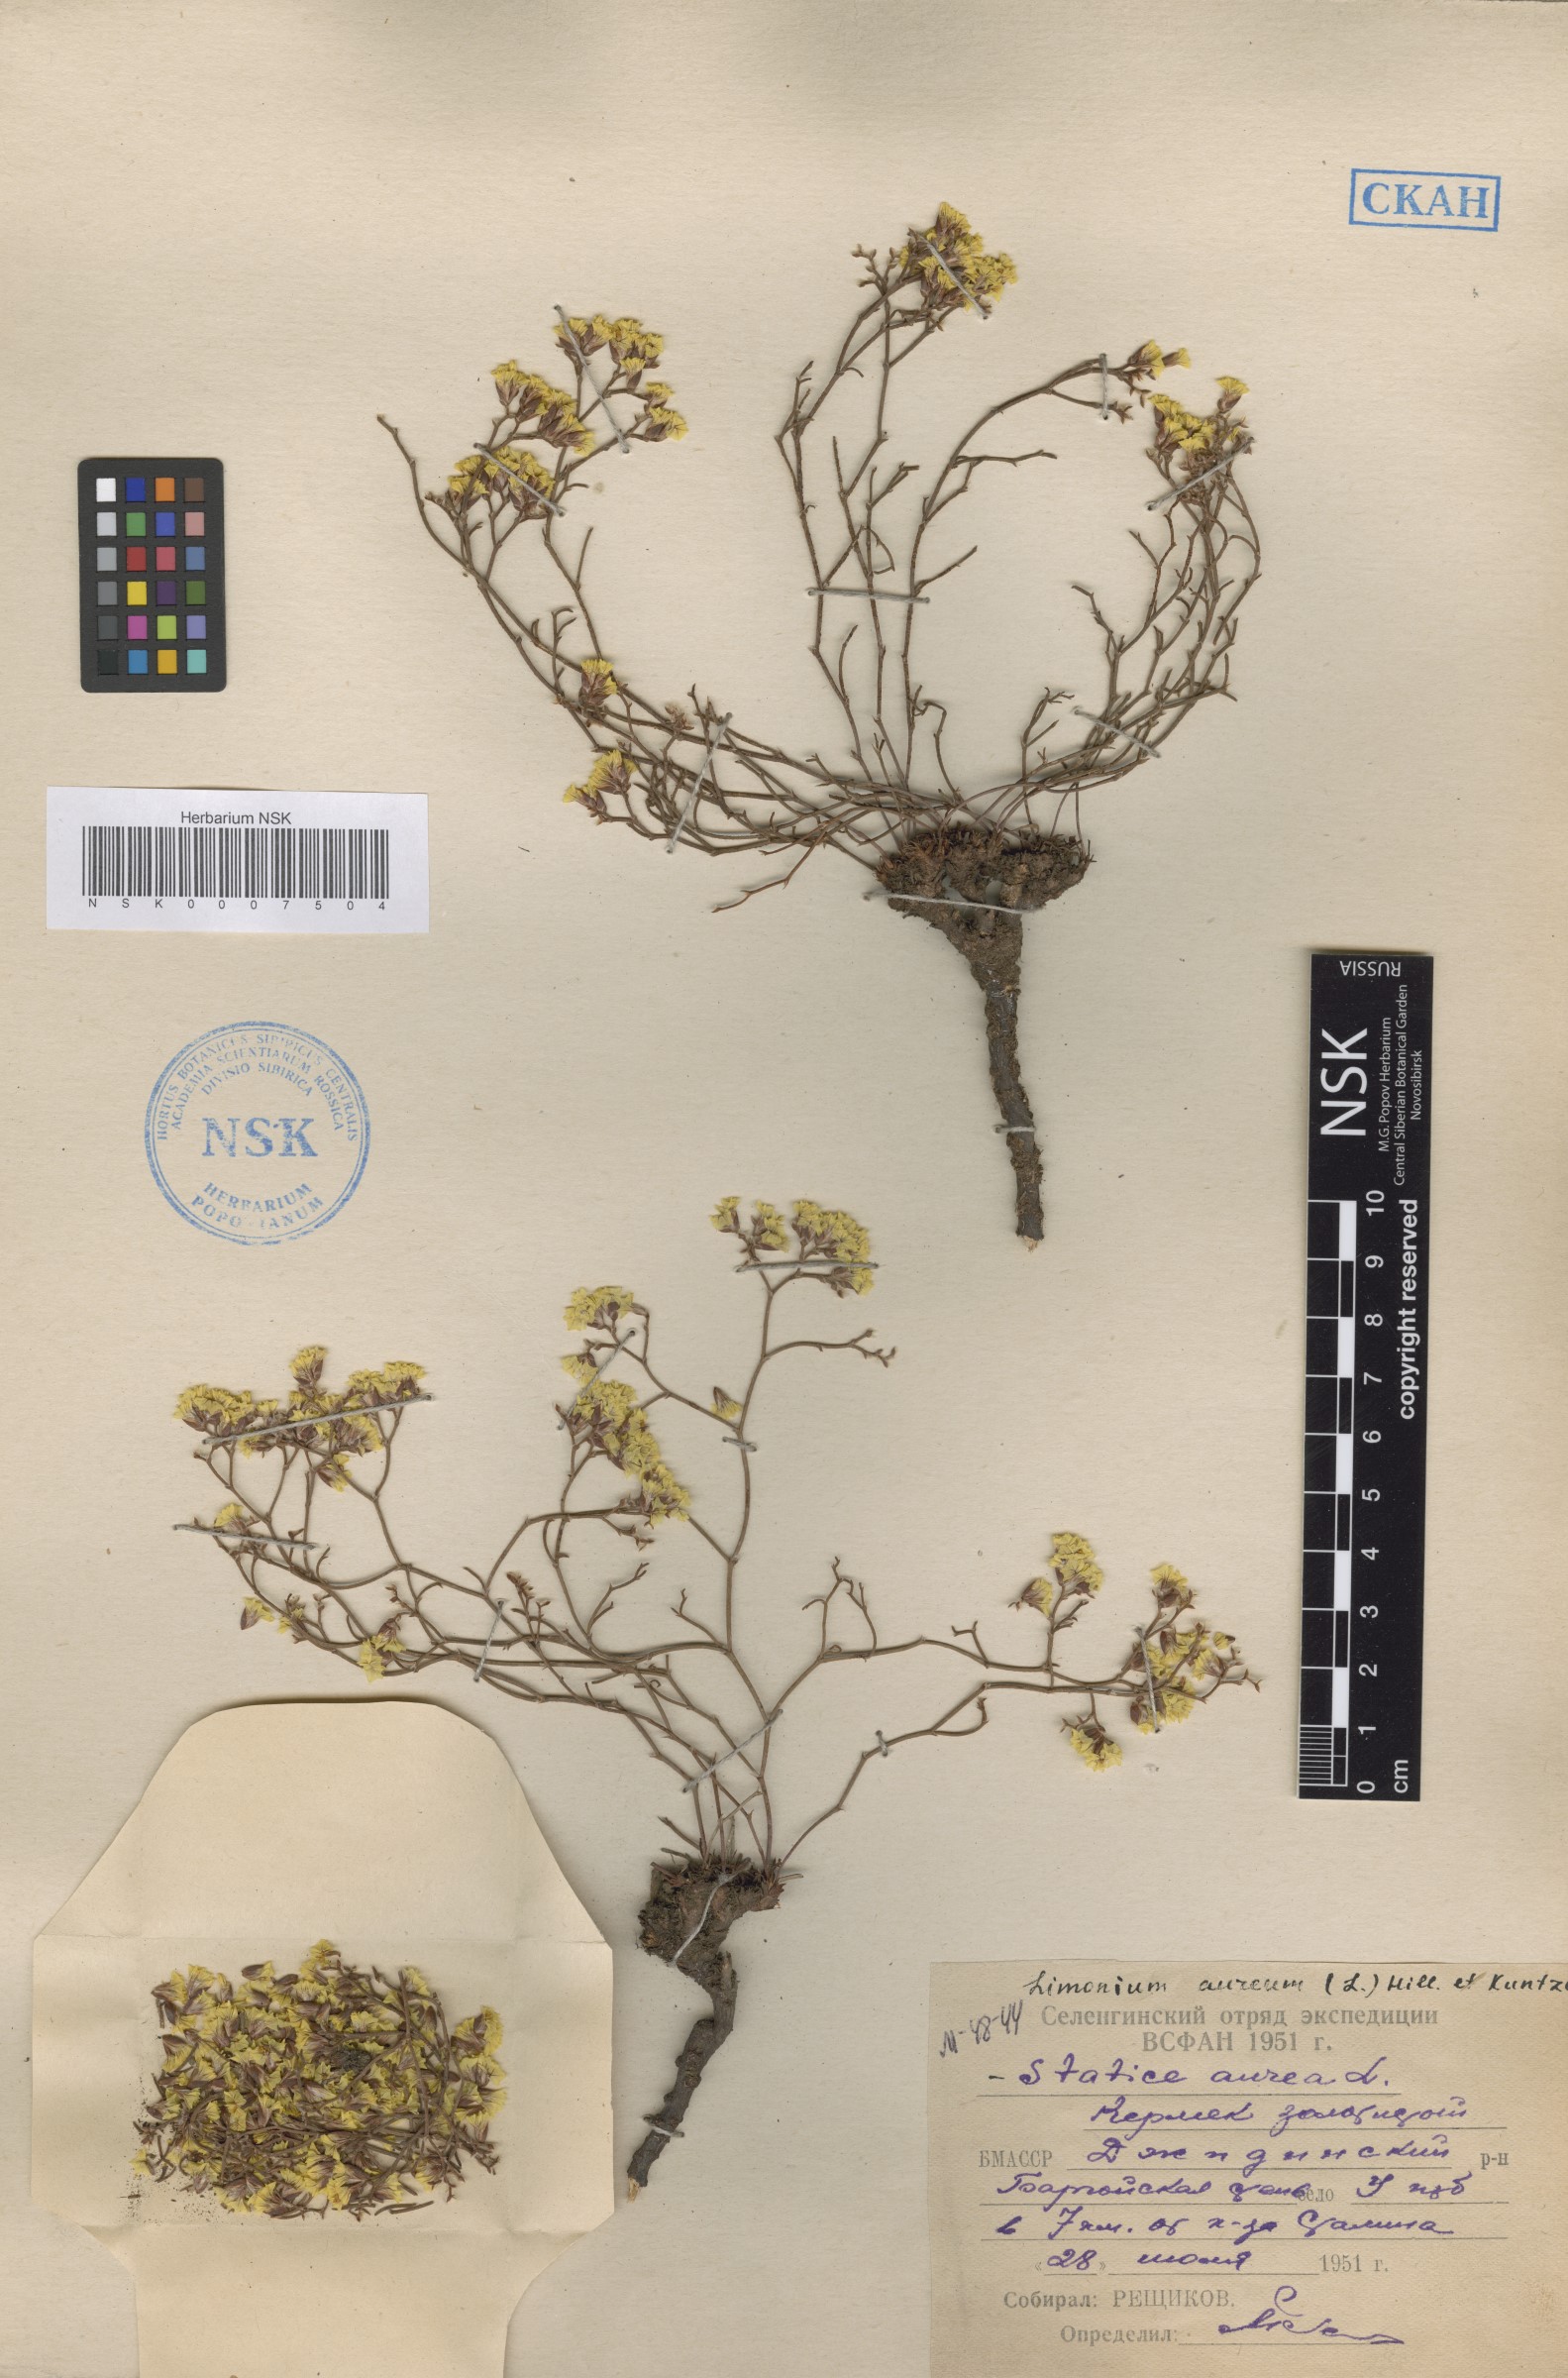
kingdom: Plantae
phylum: Tracheophyta
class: Magnoliopsida
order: Caryophyllales
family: Plumbaginaceae
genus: Limonium
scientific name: Limonium aureum
